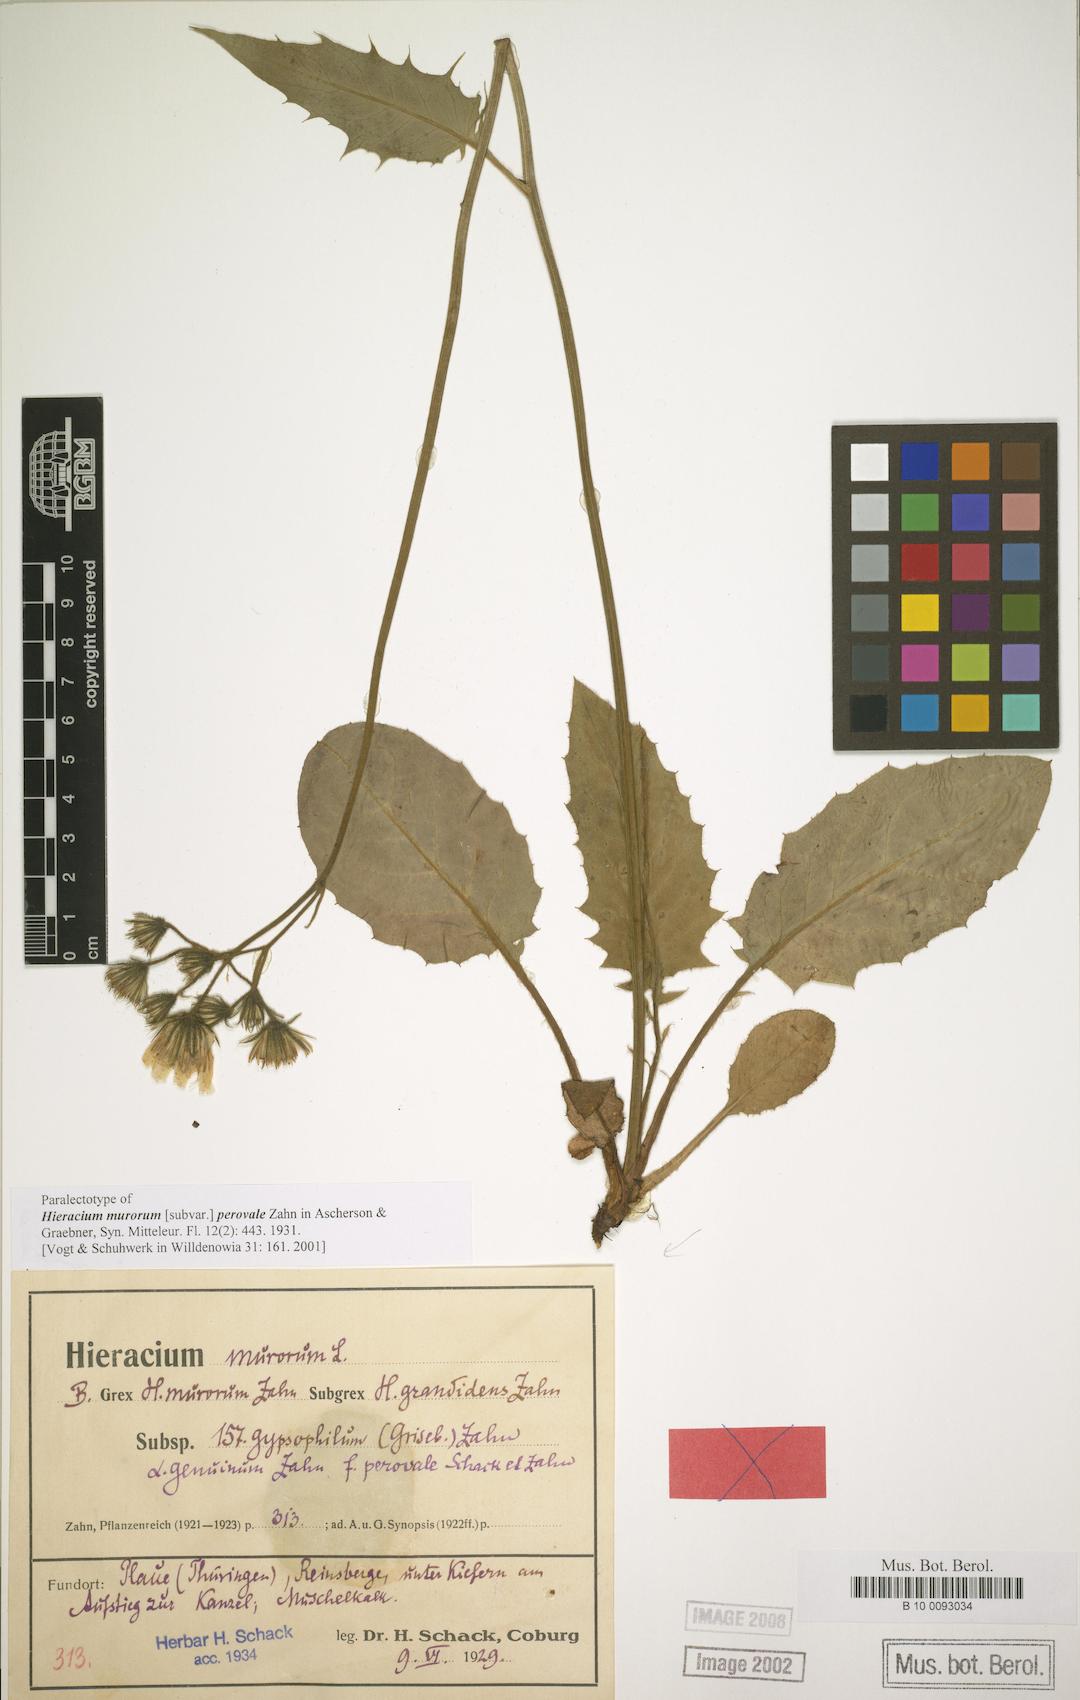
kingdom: Plantae
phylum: Tracheophyta
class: Magnoliopsida
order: Asterales
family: Asteraceae
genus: Hieracium
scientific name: Hieracium murorum
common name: Wall hawkweed
